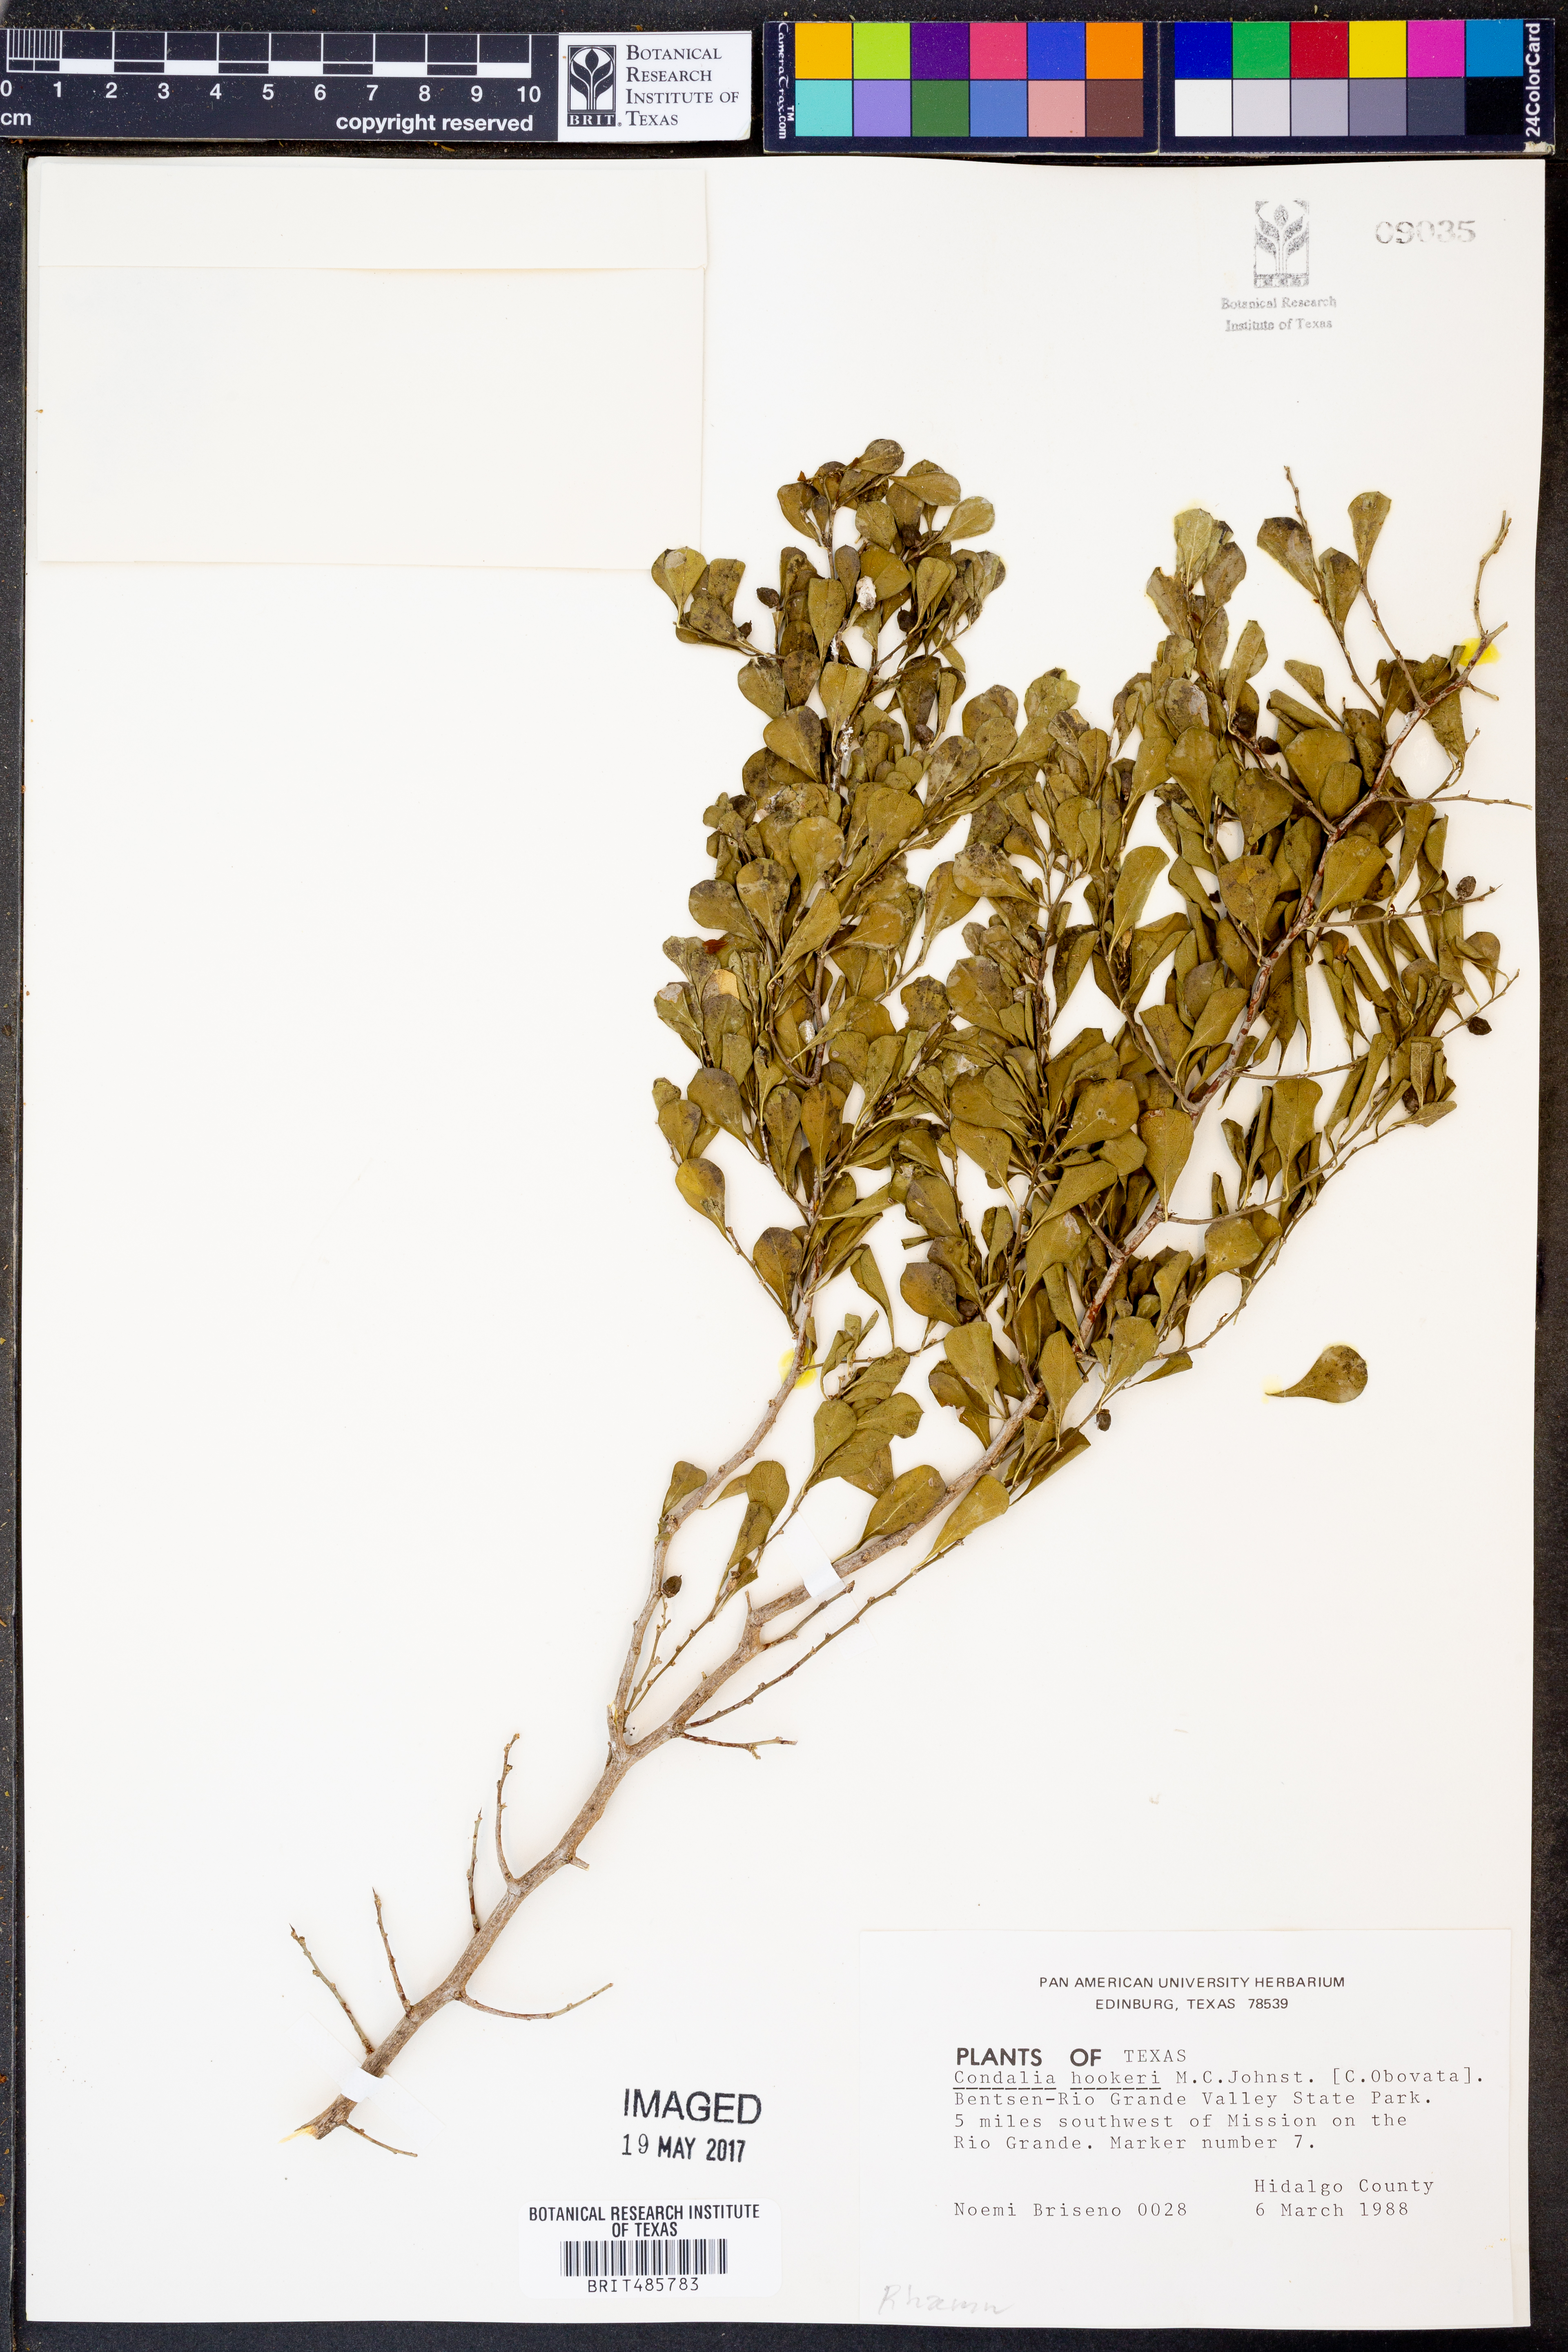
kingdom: Plantae
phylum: Tracheophyta
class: Magnoliopsida
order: Rosales
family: Rhamnaceae
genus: Condalia
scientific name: Condalia hookeri
